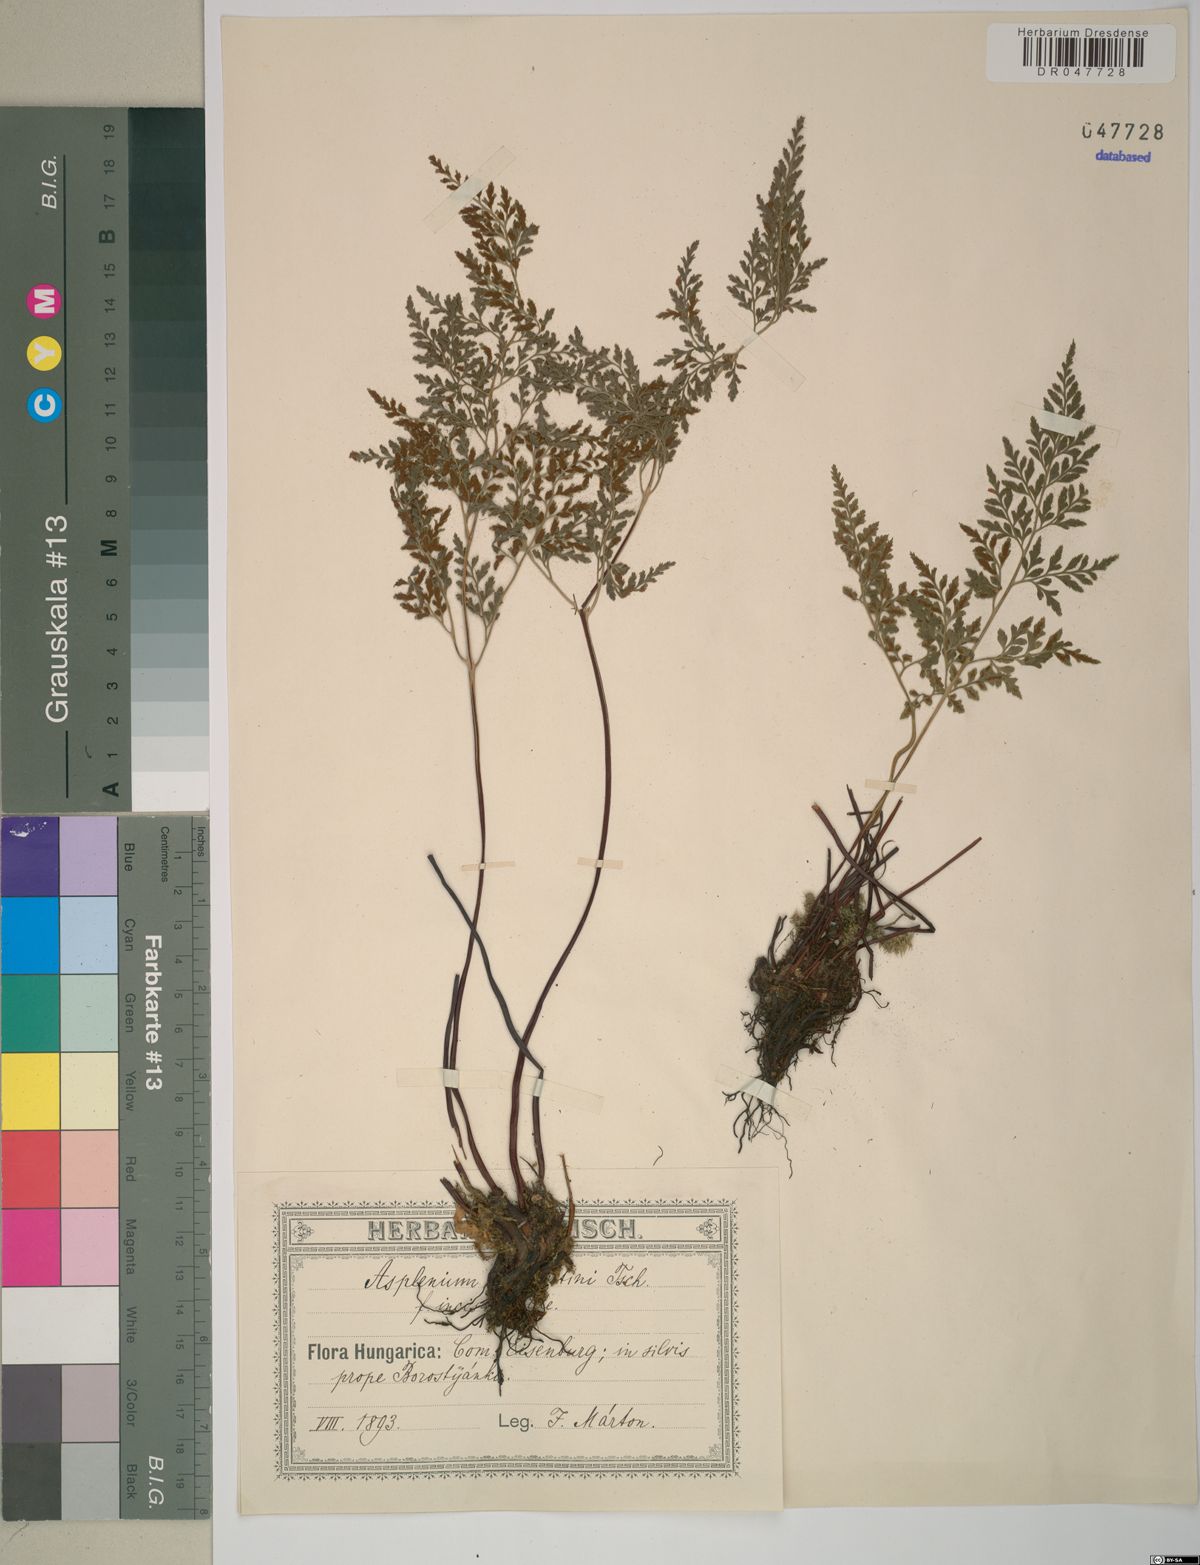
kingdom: Plantae
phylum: Tracheophyta
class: Polypodiopsida
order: Polypodiales
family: Aspleniaceae
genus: Asplenium
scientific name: Asplenium cuneifolium
